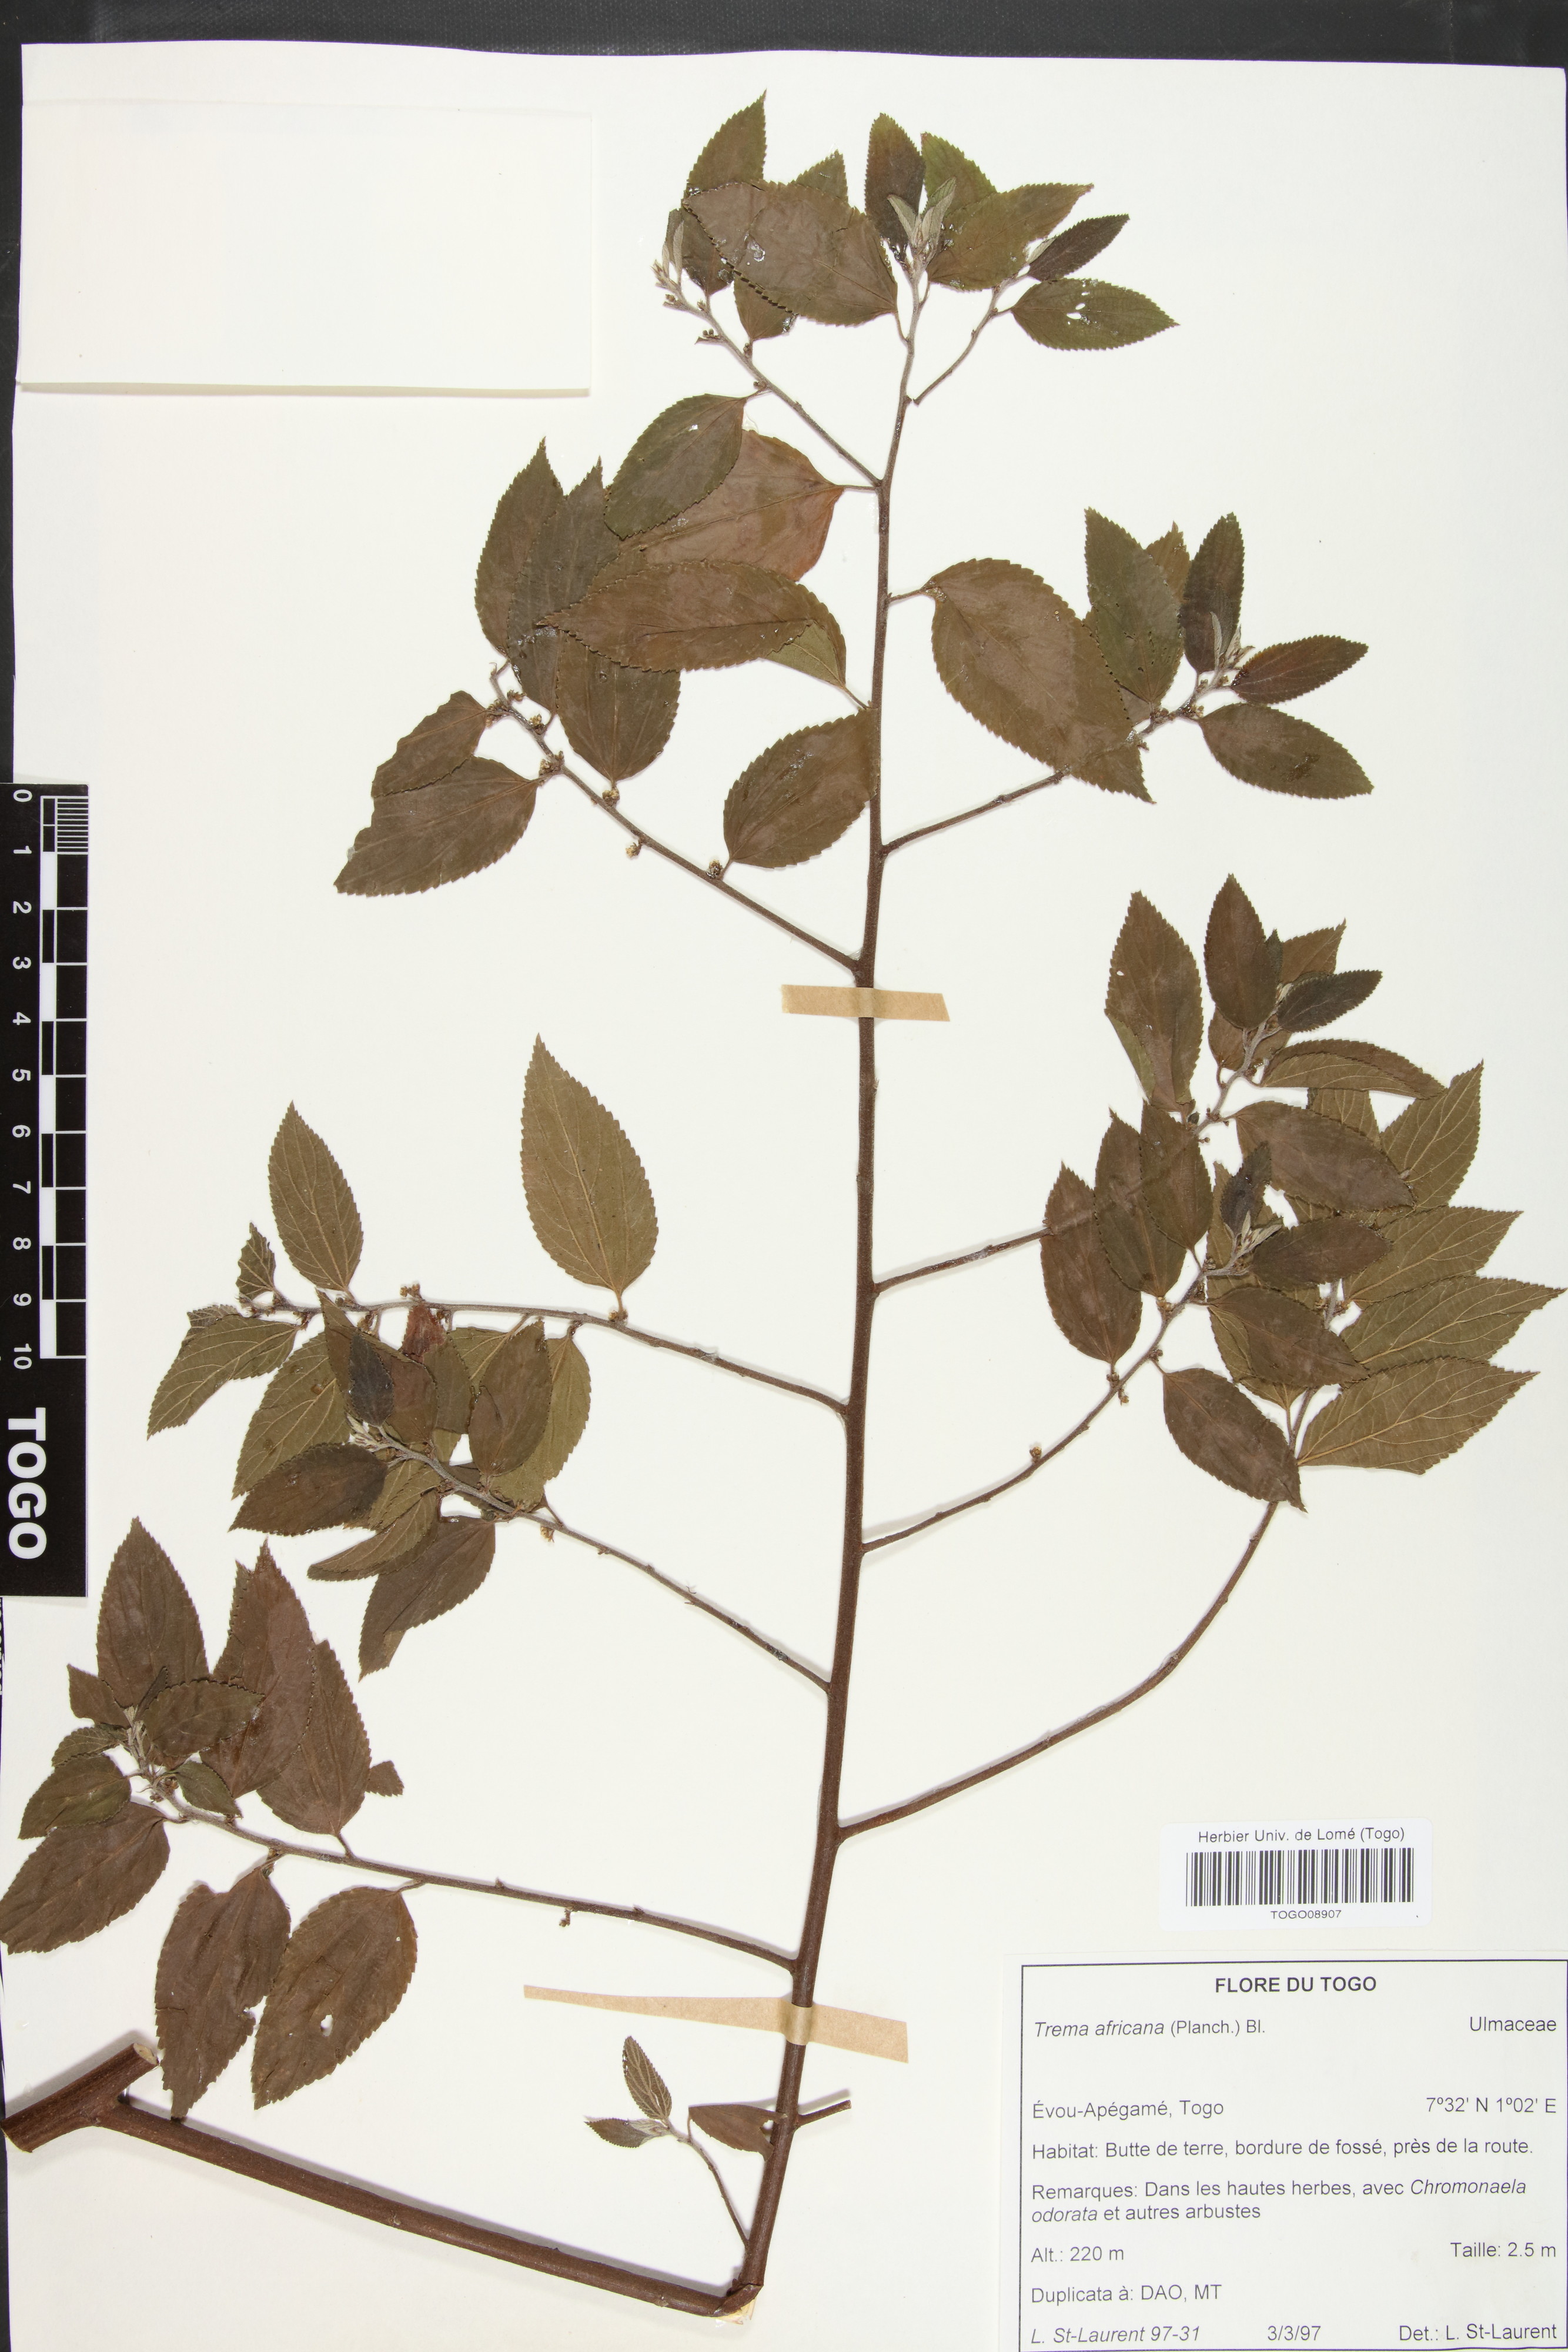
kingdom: Plantae
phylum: Tracheophyta
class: Magnoliopsida
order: Rosales
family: Cannabaceae
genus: Trema
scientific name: Trema orientale
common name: Indian charcoal tree
